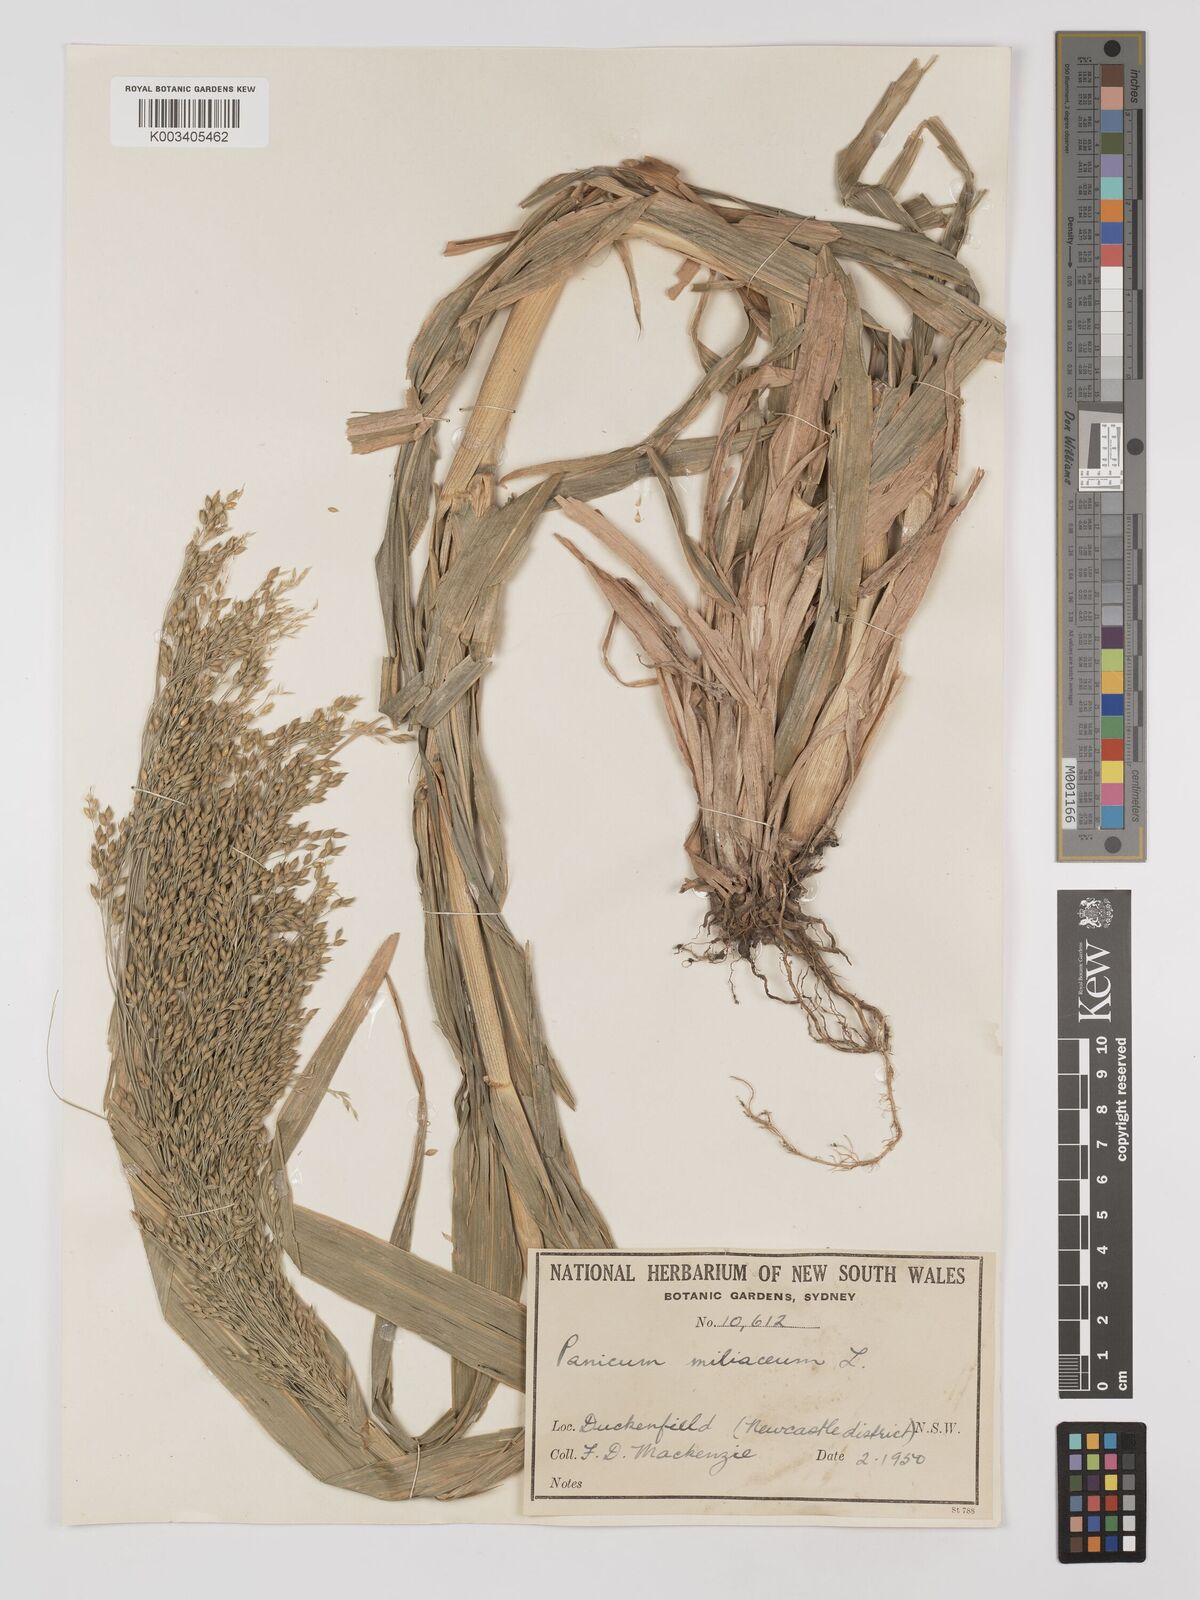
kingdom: Plantae
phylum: Tracheophyta
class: Liliopsida
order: Poales
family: Poaceae
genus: Panicum
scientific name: Panicum miliaceum
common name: Common millet
